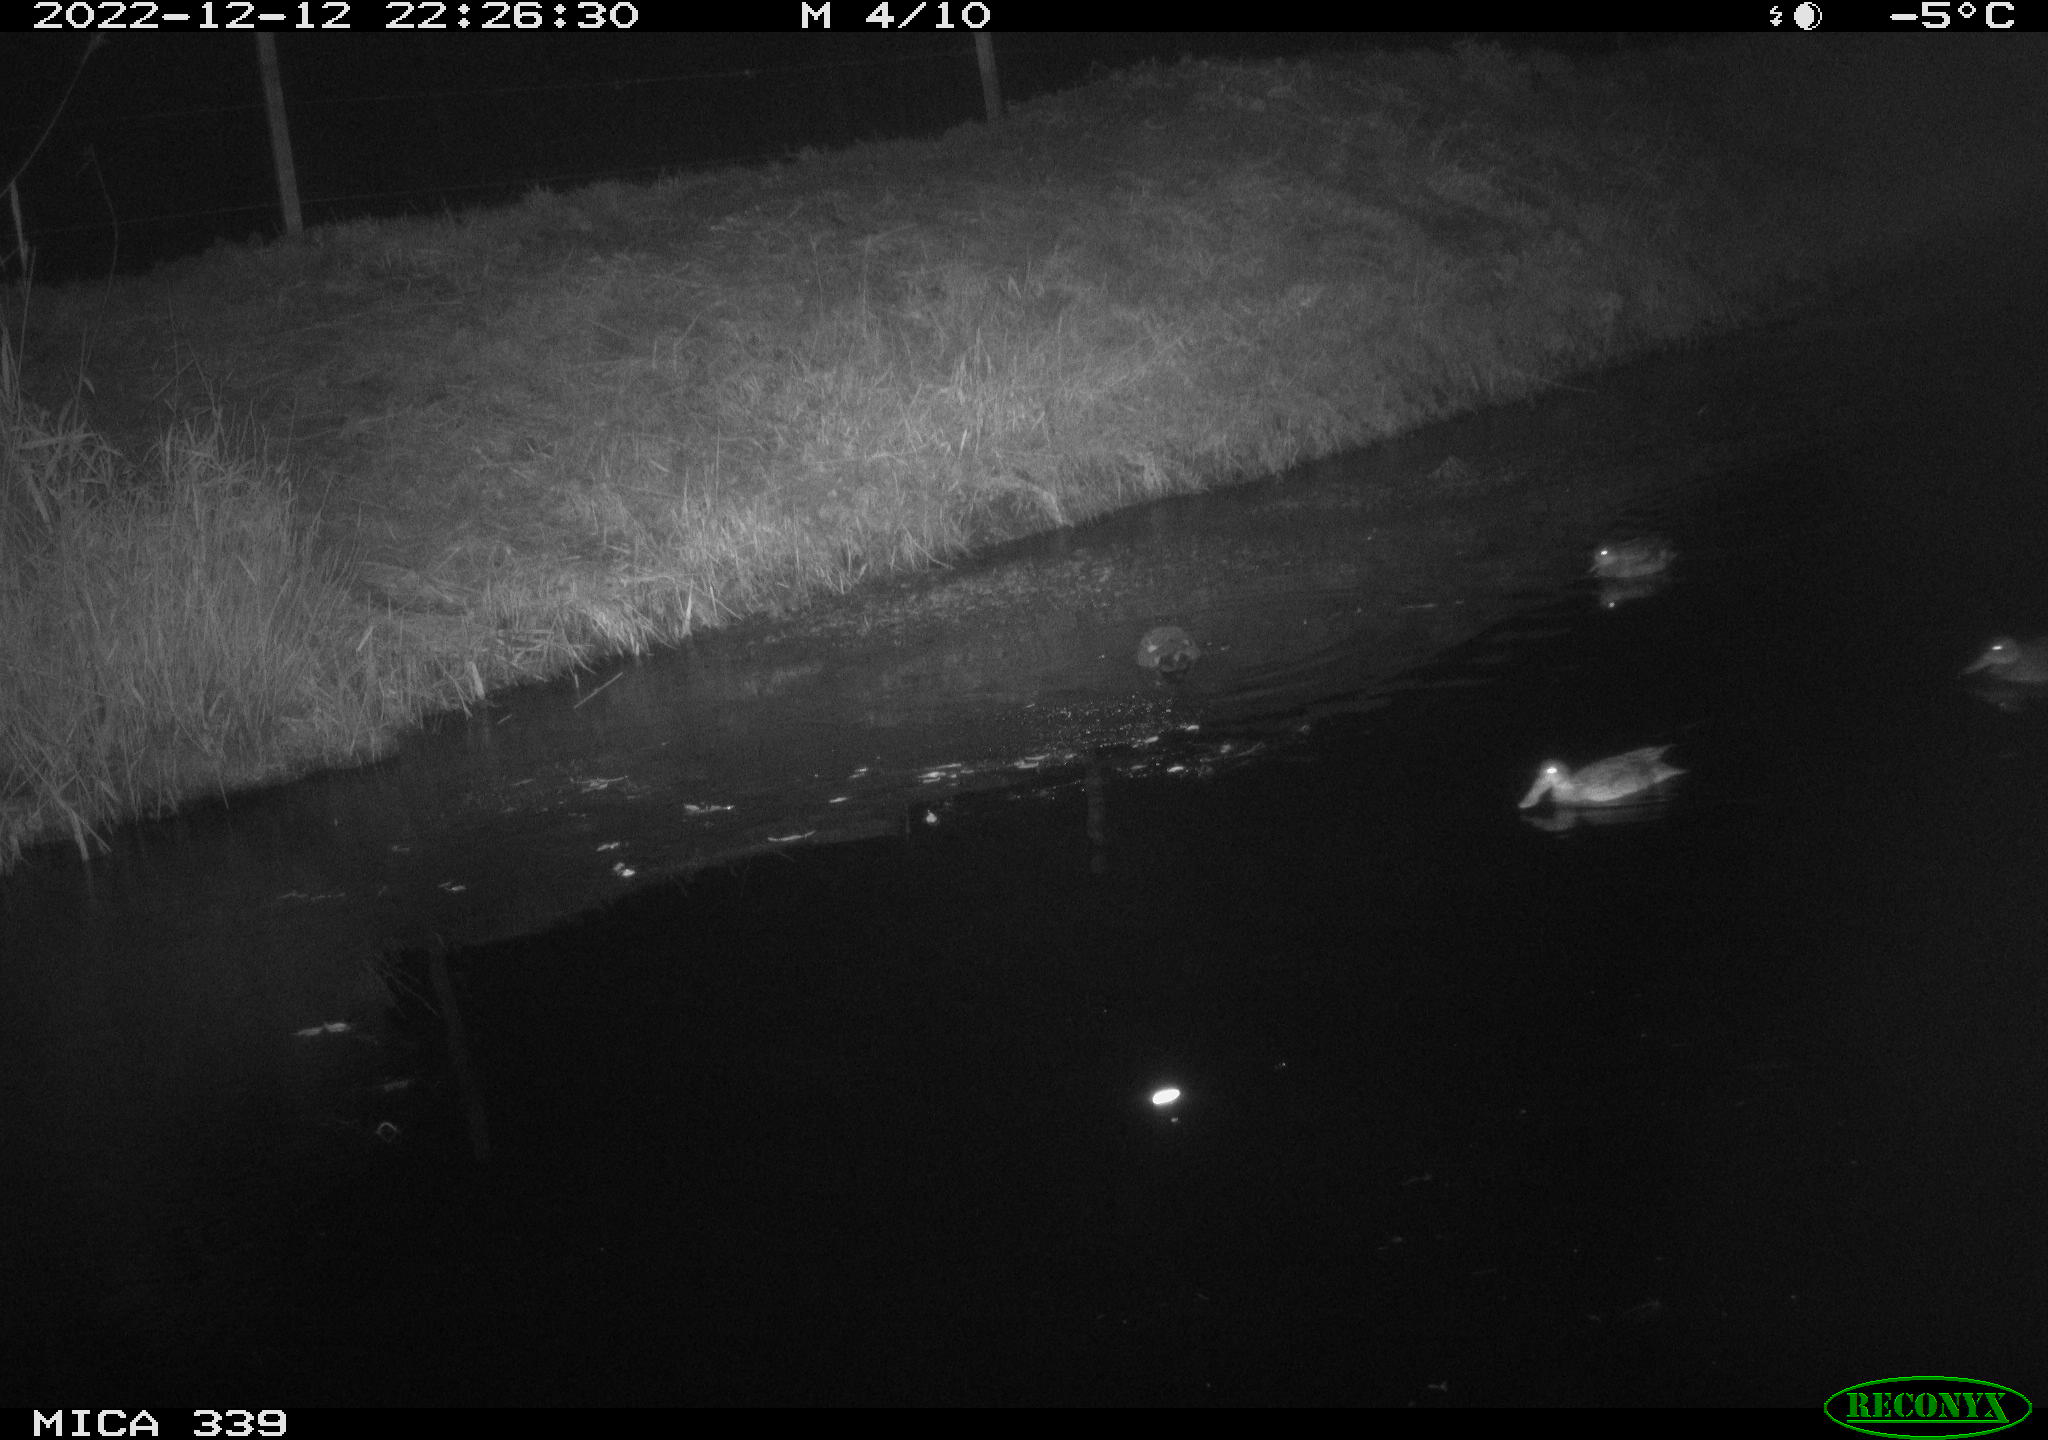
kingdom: Animalia
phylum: Chordata
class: Aves
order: Anseriformes
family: Anatidae
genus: Anas
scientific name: Anas
